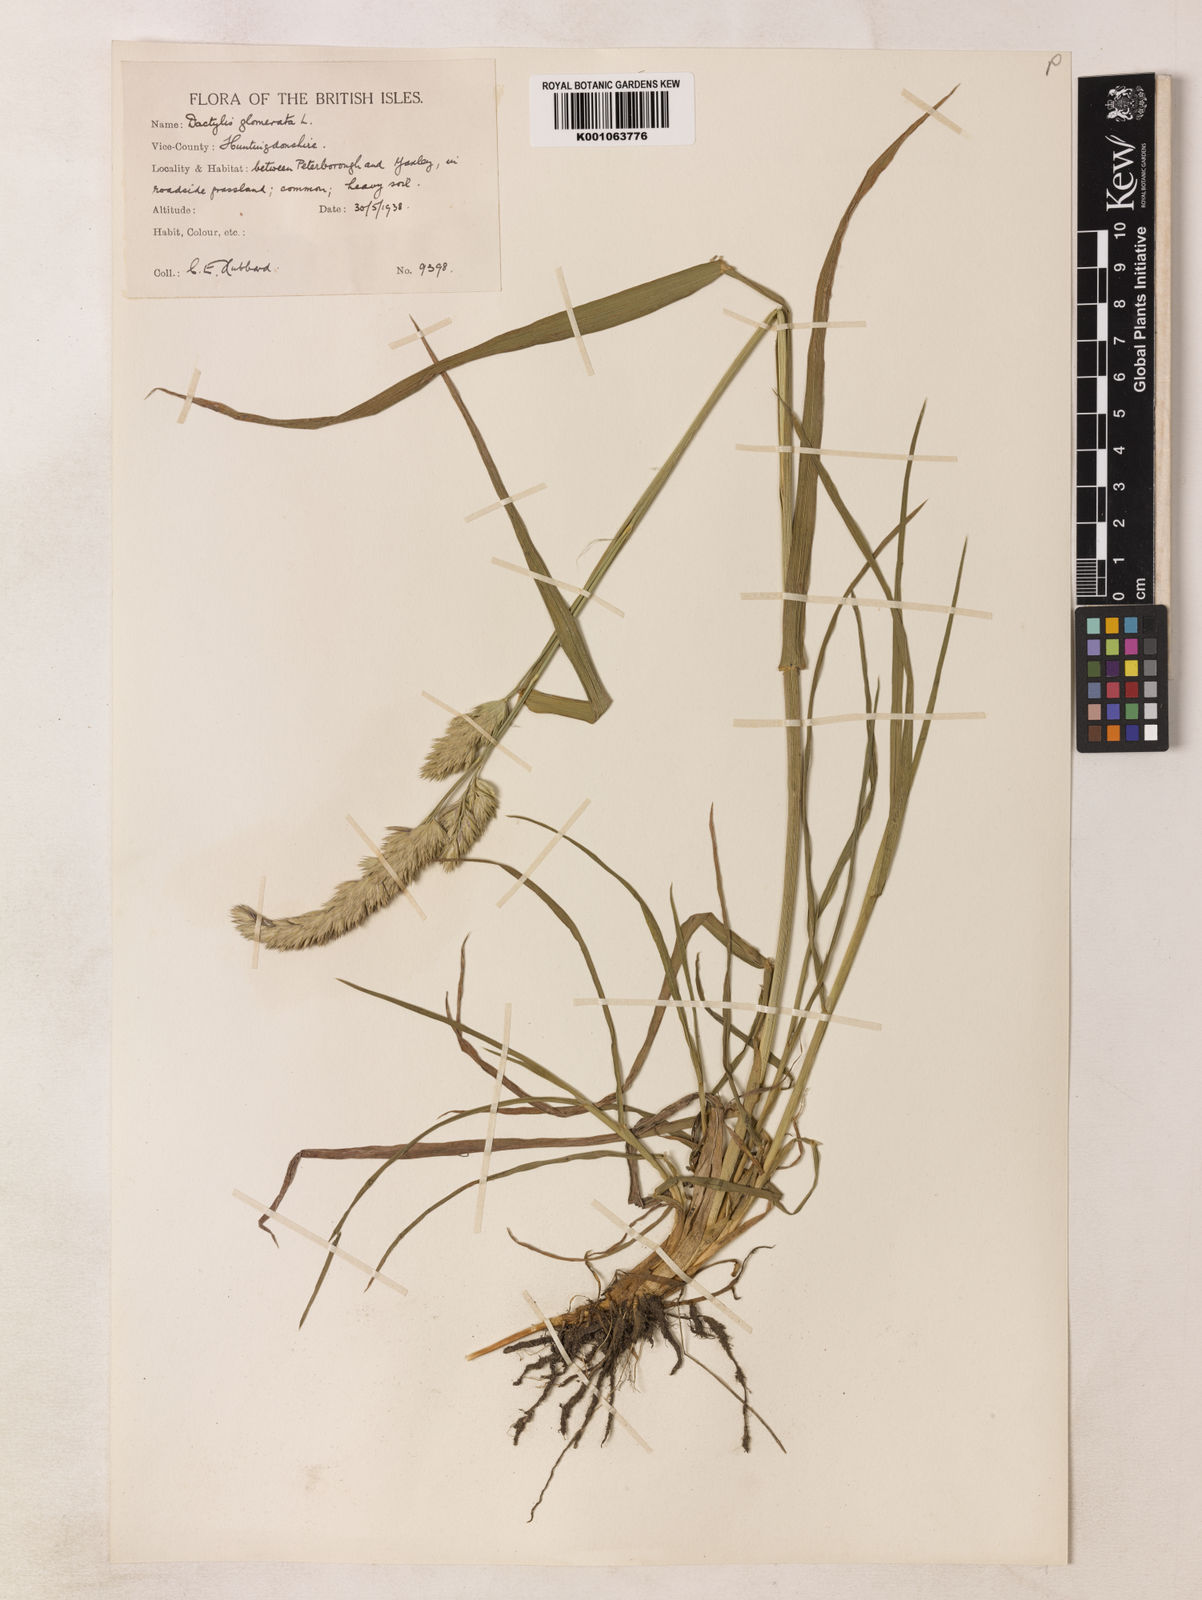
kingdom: Plantae
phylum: Tracheophyta
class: Liliopsida
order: Poales
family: Poaceae
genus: Dactylis
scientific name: Dactylis glomerata
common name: Orchardgrass
